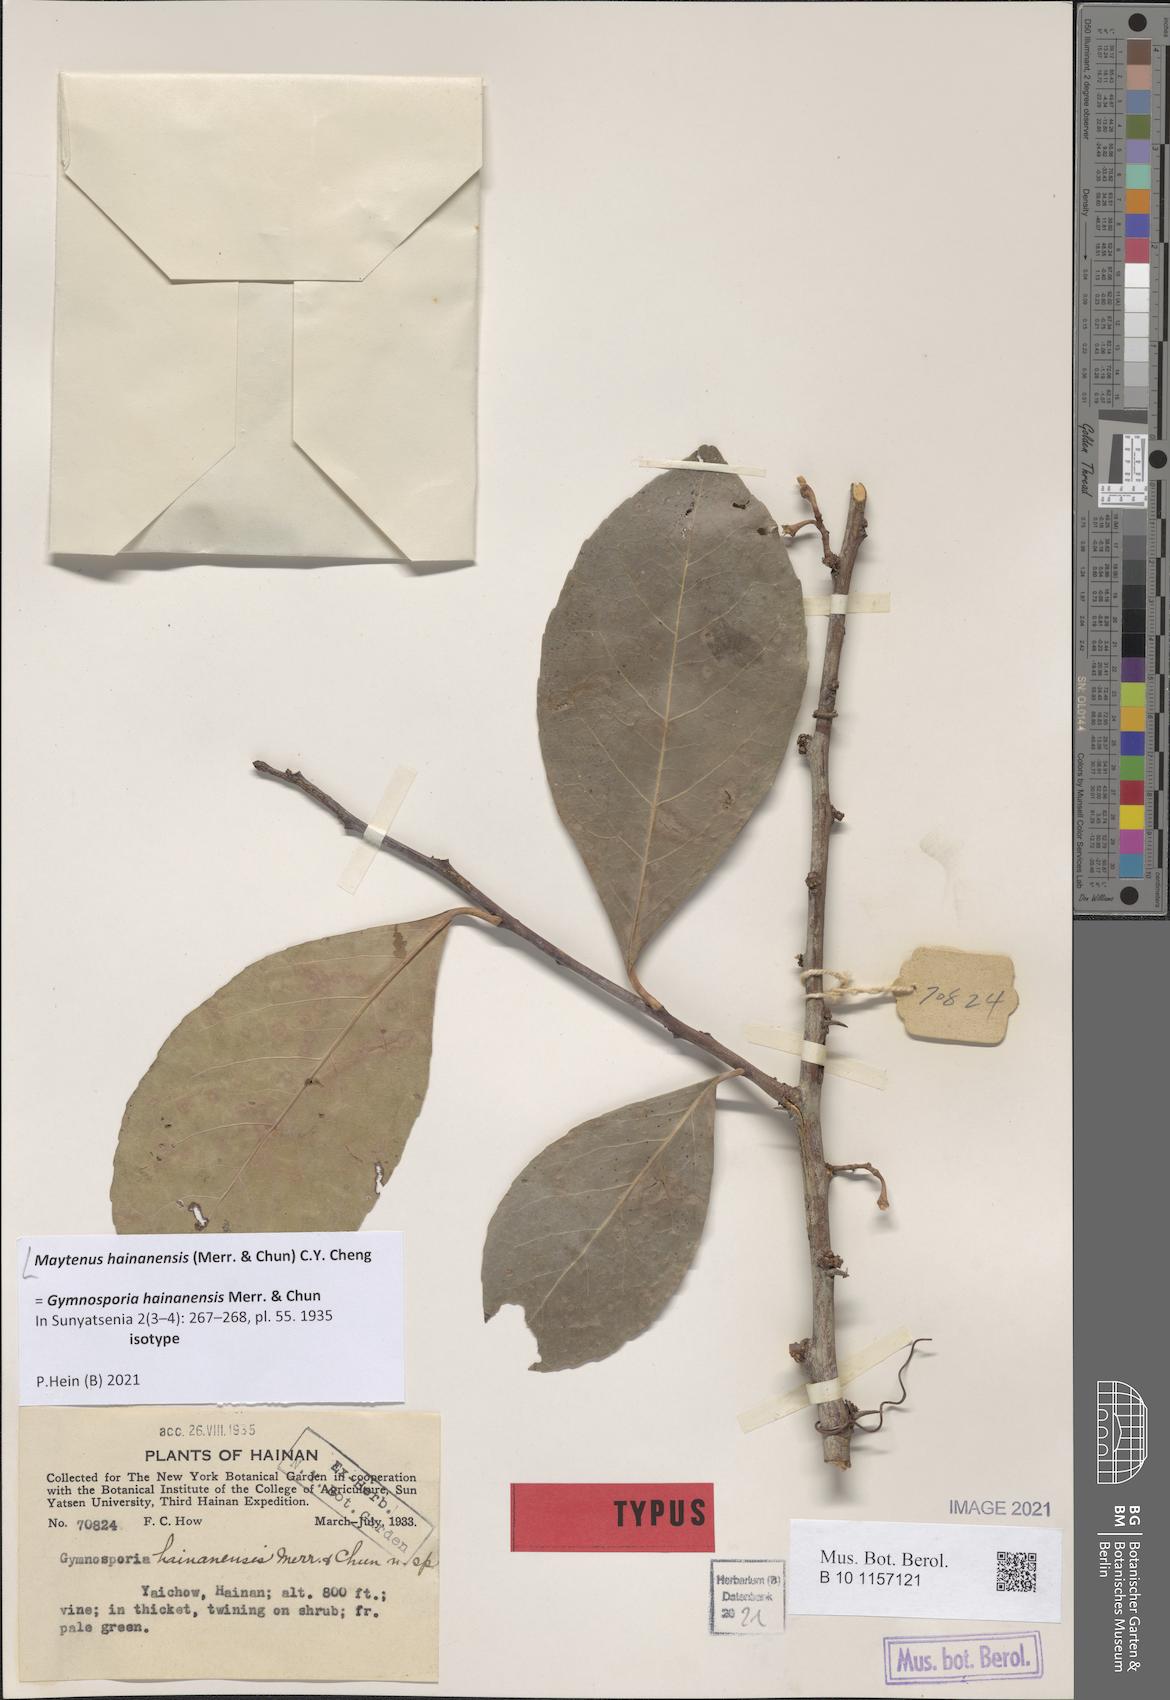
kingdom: Plantae
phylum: Tracheophyta
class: Magnoliopsida
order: Celastrales
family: Celastraceae
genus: Gymnosporia
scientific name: Gymnosporia hainanensis
